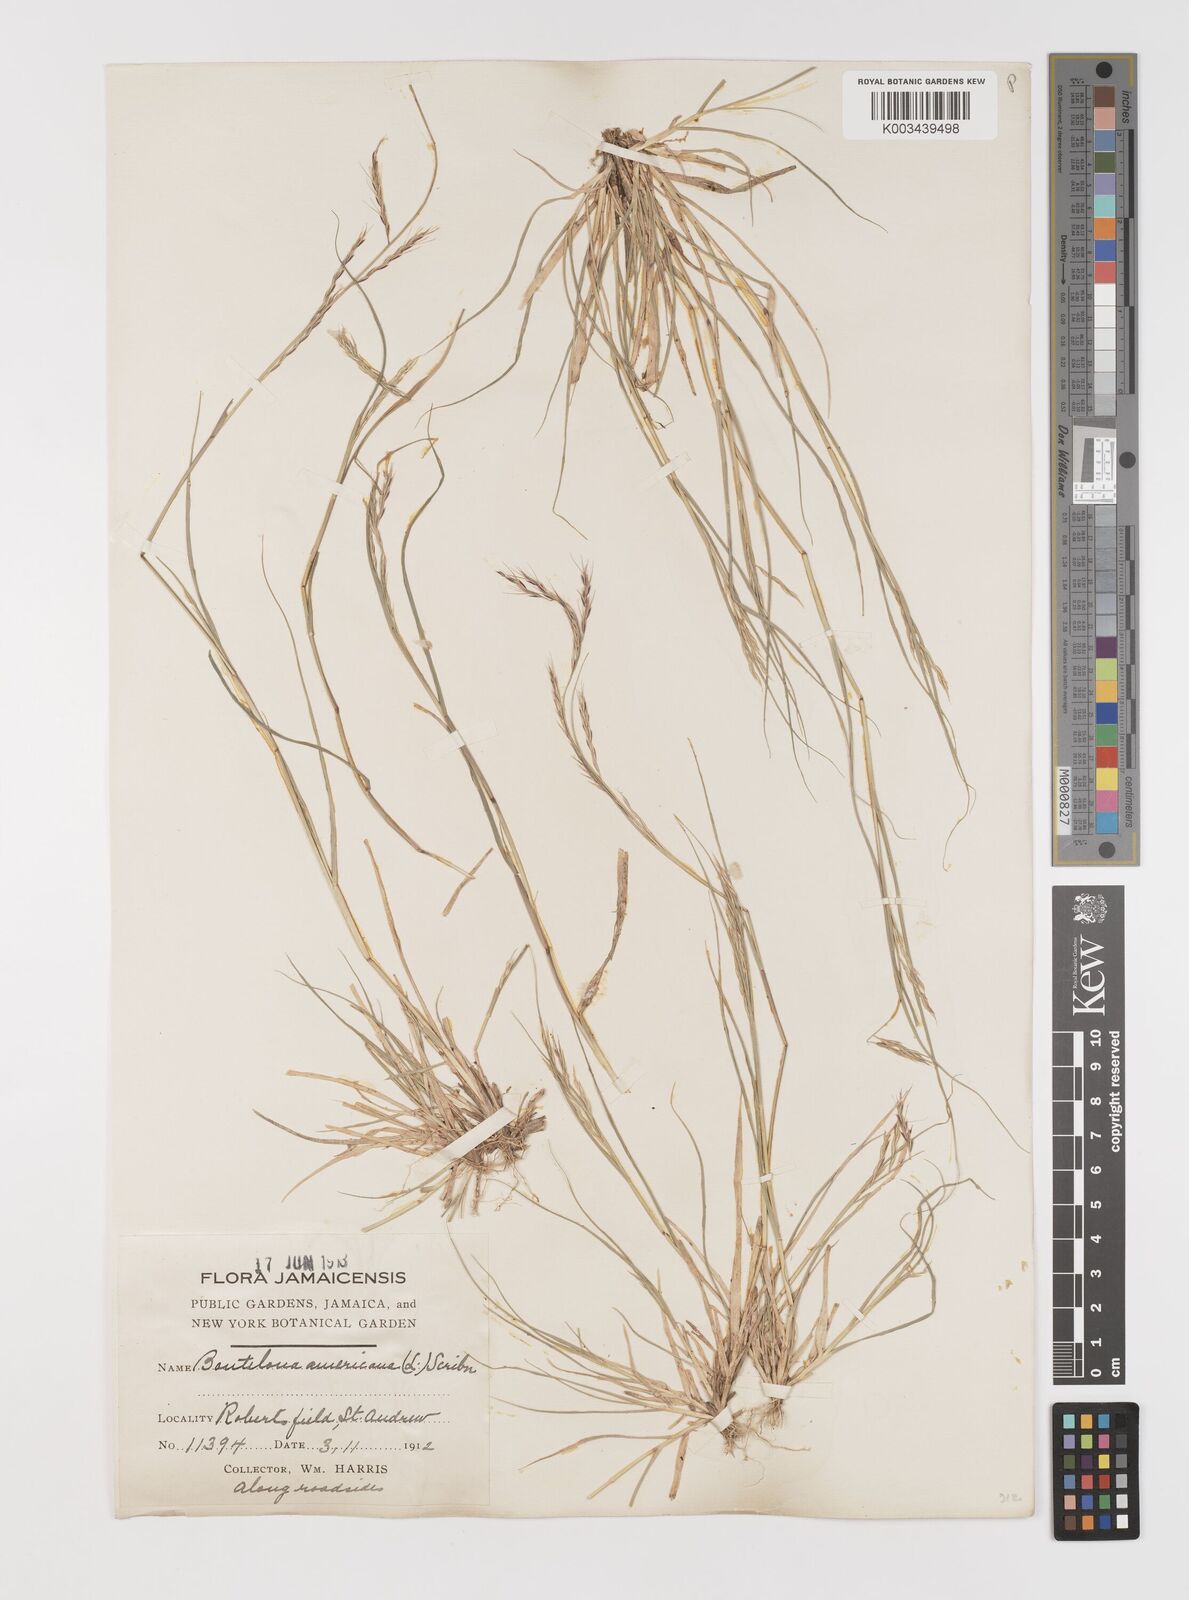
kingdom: Plantae
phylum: Tracheophyta
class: Liliopsida
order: Poales
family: Poaceae
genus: Bouteloua
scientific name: Bouteloua americana
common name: Mule grass
